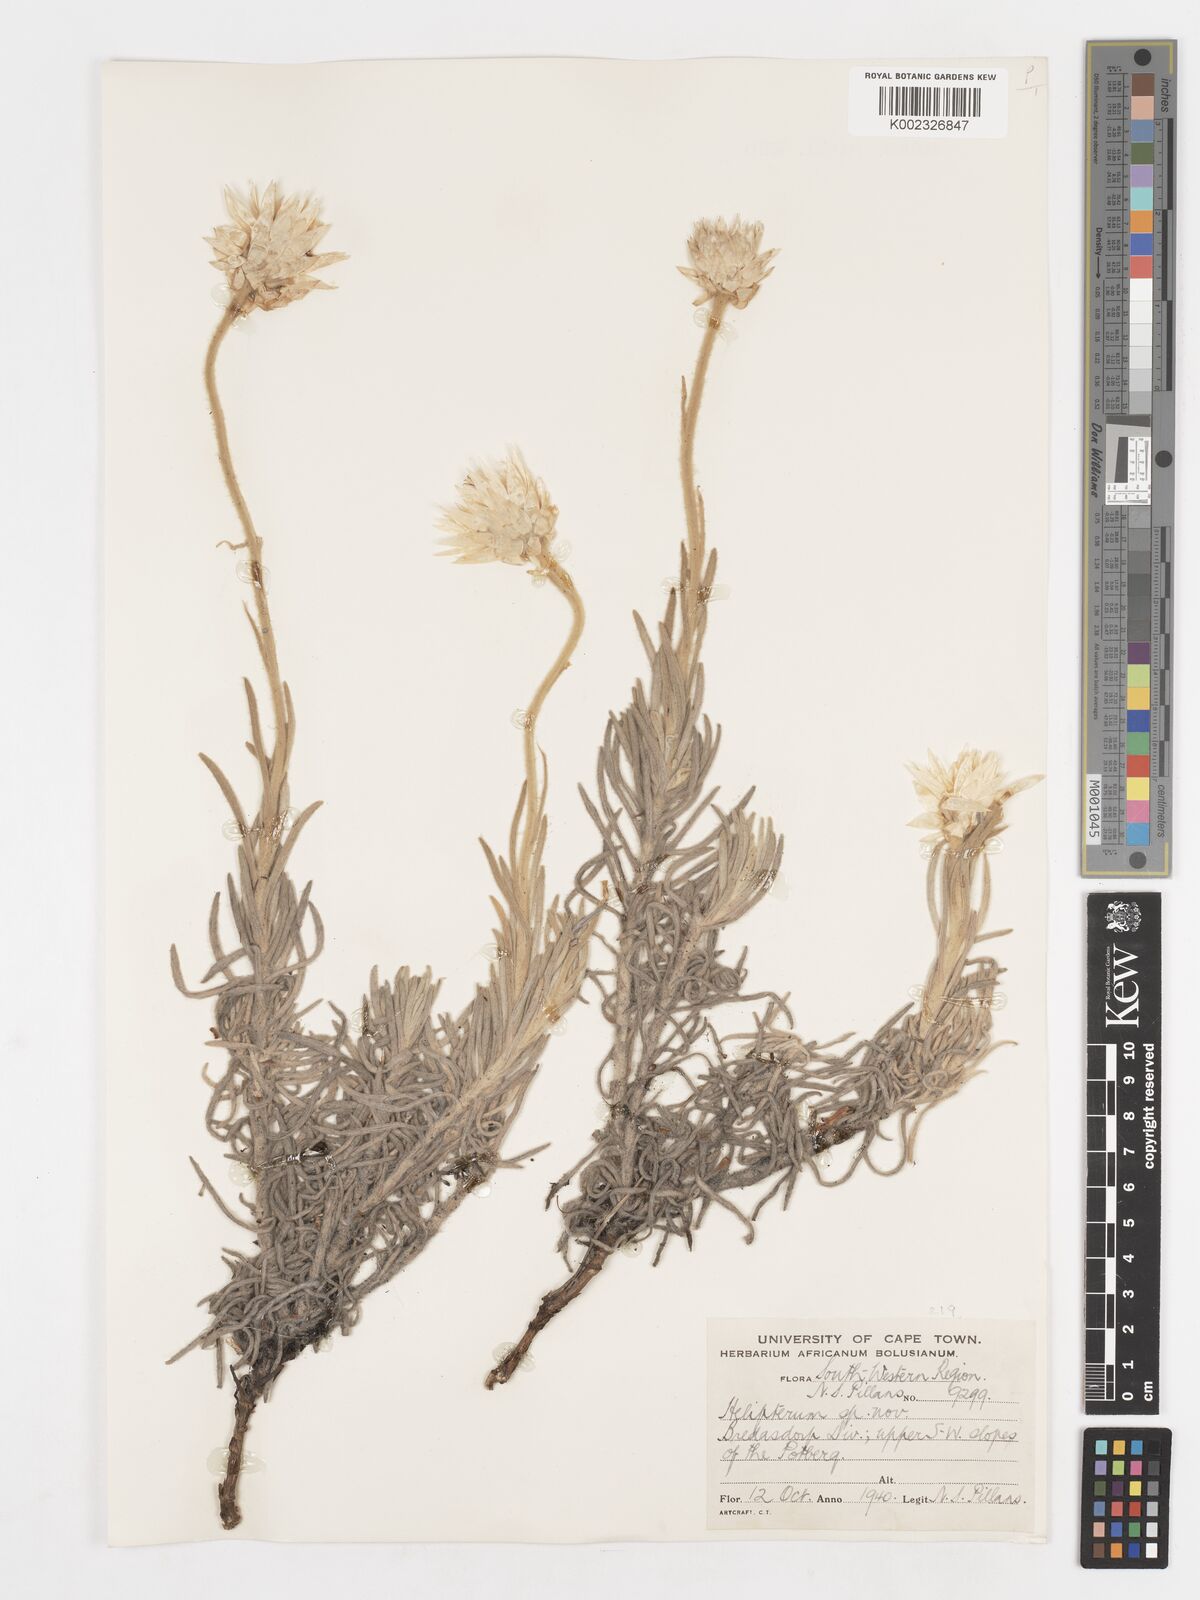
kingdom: Plantae
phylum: Tracheophyta
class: Magnoliopsida
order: Asterales
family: Asteraceae
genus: Syncarpha
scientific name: Syncarpha
